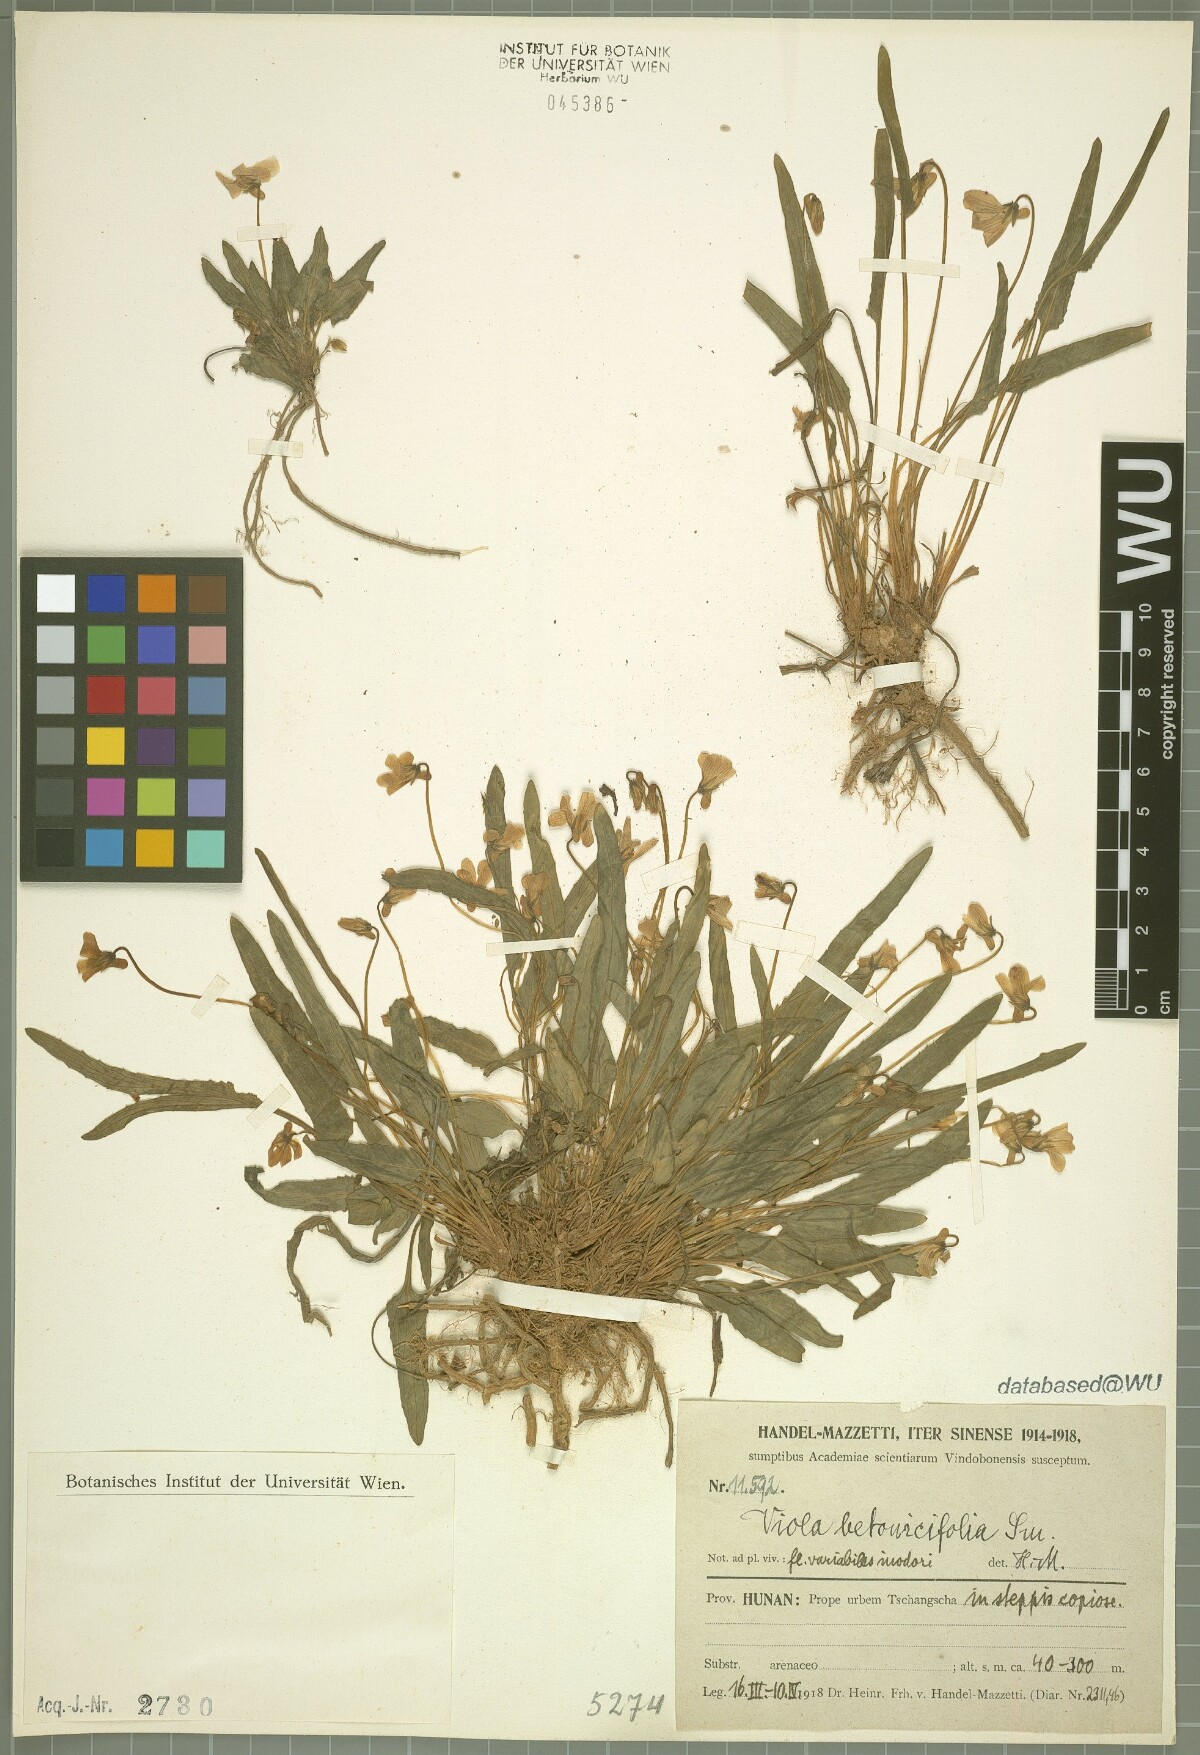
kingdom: Plantae
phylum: Tracheophyta
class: Magnoliopsida
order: Malpighiales
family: Violaceae
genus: Viola
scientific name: Viola betonicifolia
